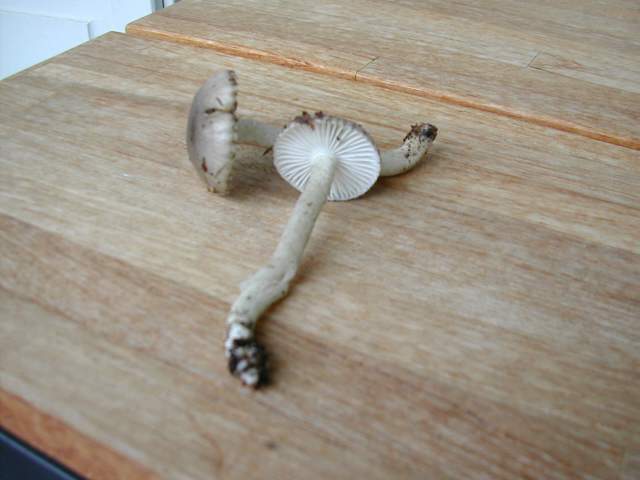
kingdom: Fungi
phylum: Basidiomycota
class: Agaricomycetes
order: Agaricales
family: Hygrophoraceae
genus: Hygrophorus
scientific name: Hygrophorus pustulatus
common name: mørkprikket sneglehat
